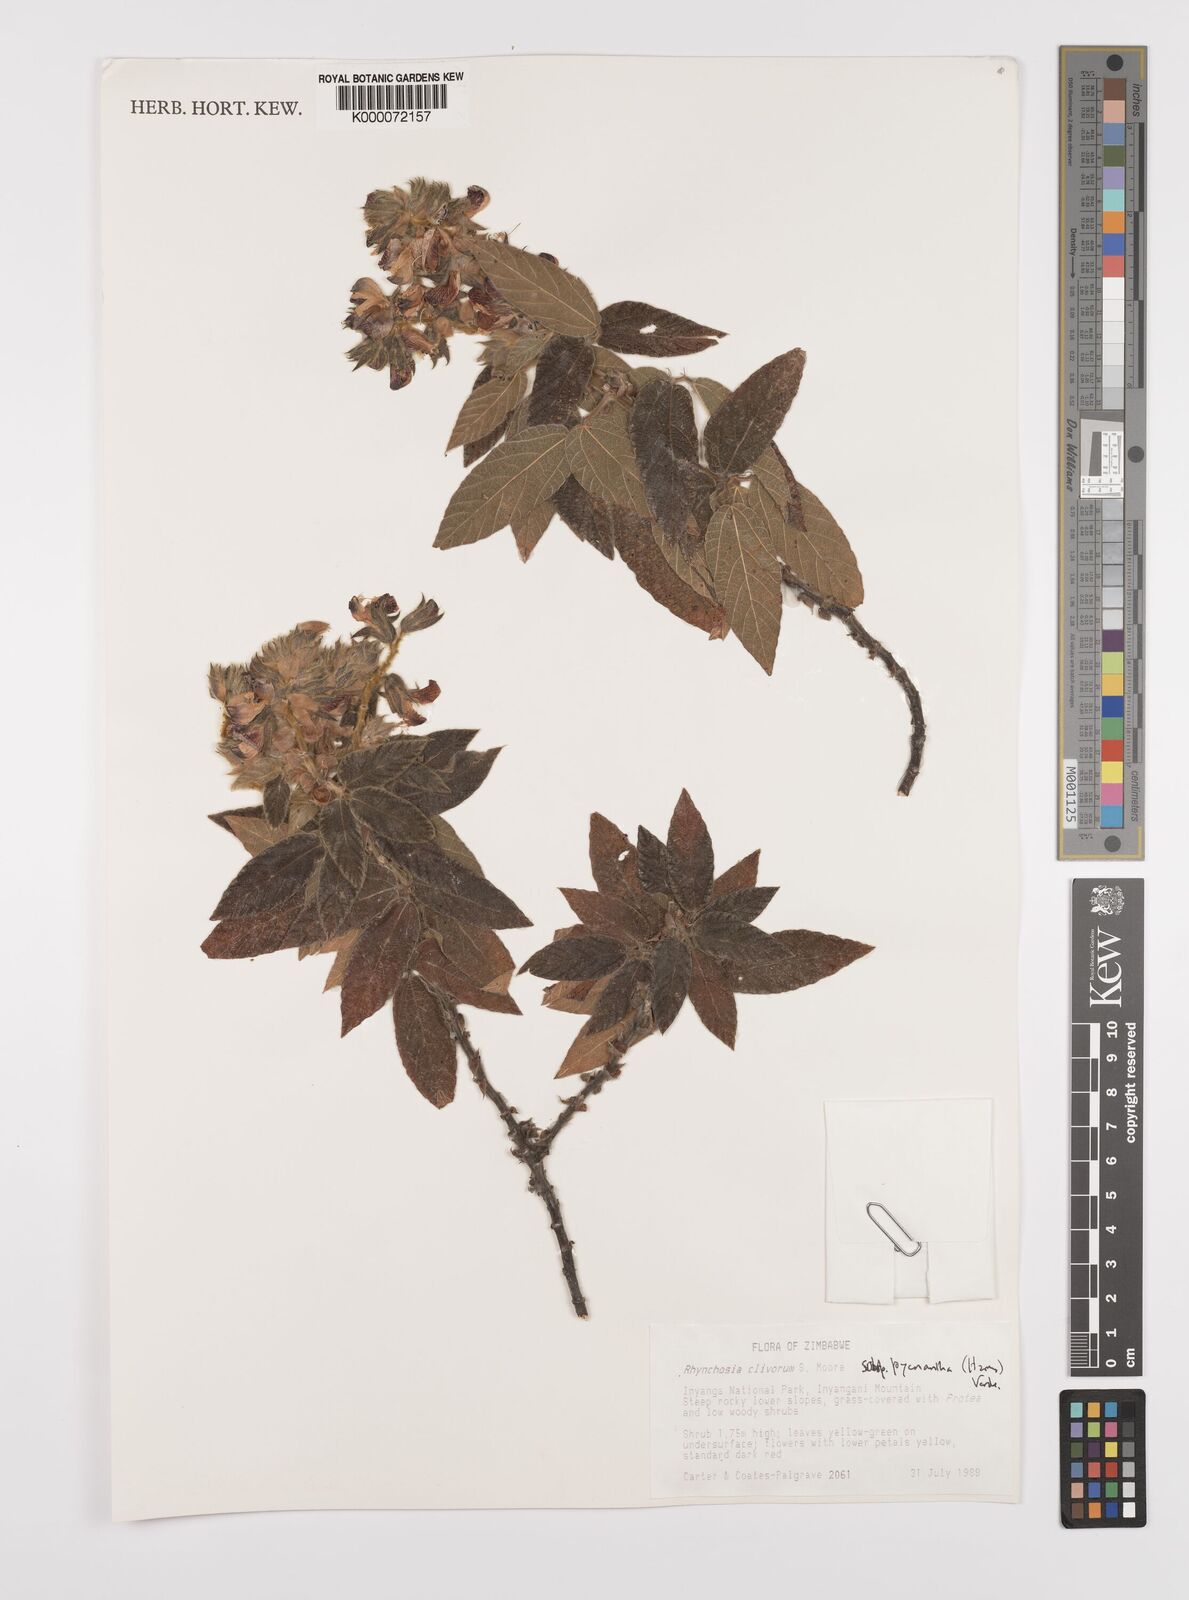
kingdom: Plantae
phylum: Tracheophyta
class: Magnoliopsida
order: Fabales
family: Fabaceae
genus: Rhynchosia
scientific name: Rhynchosia clivorum
